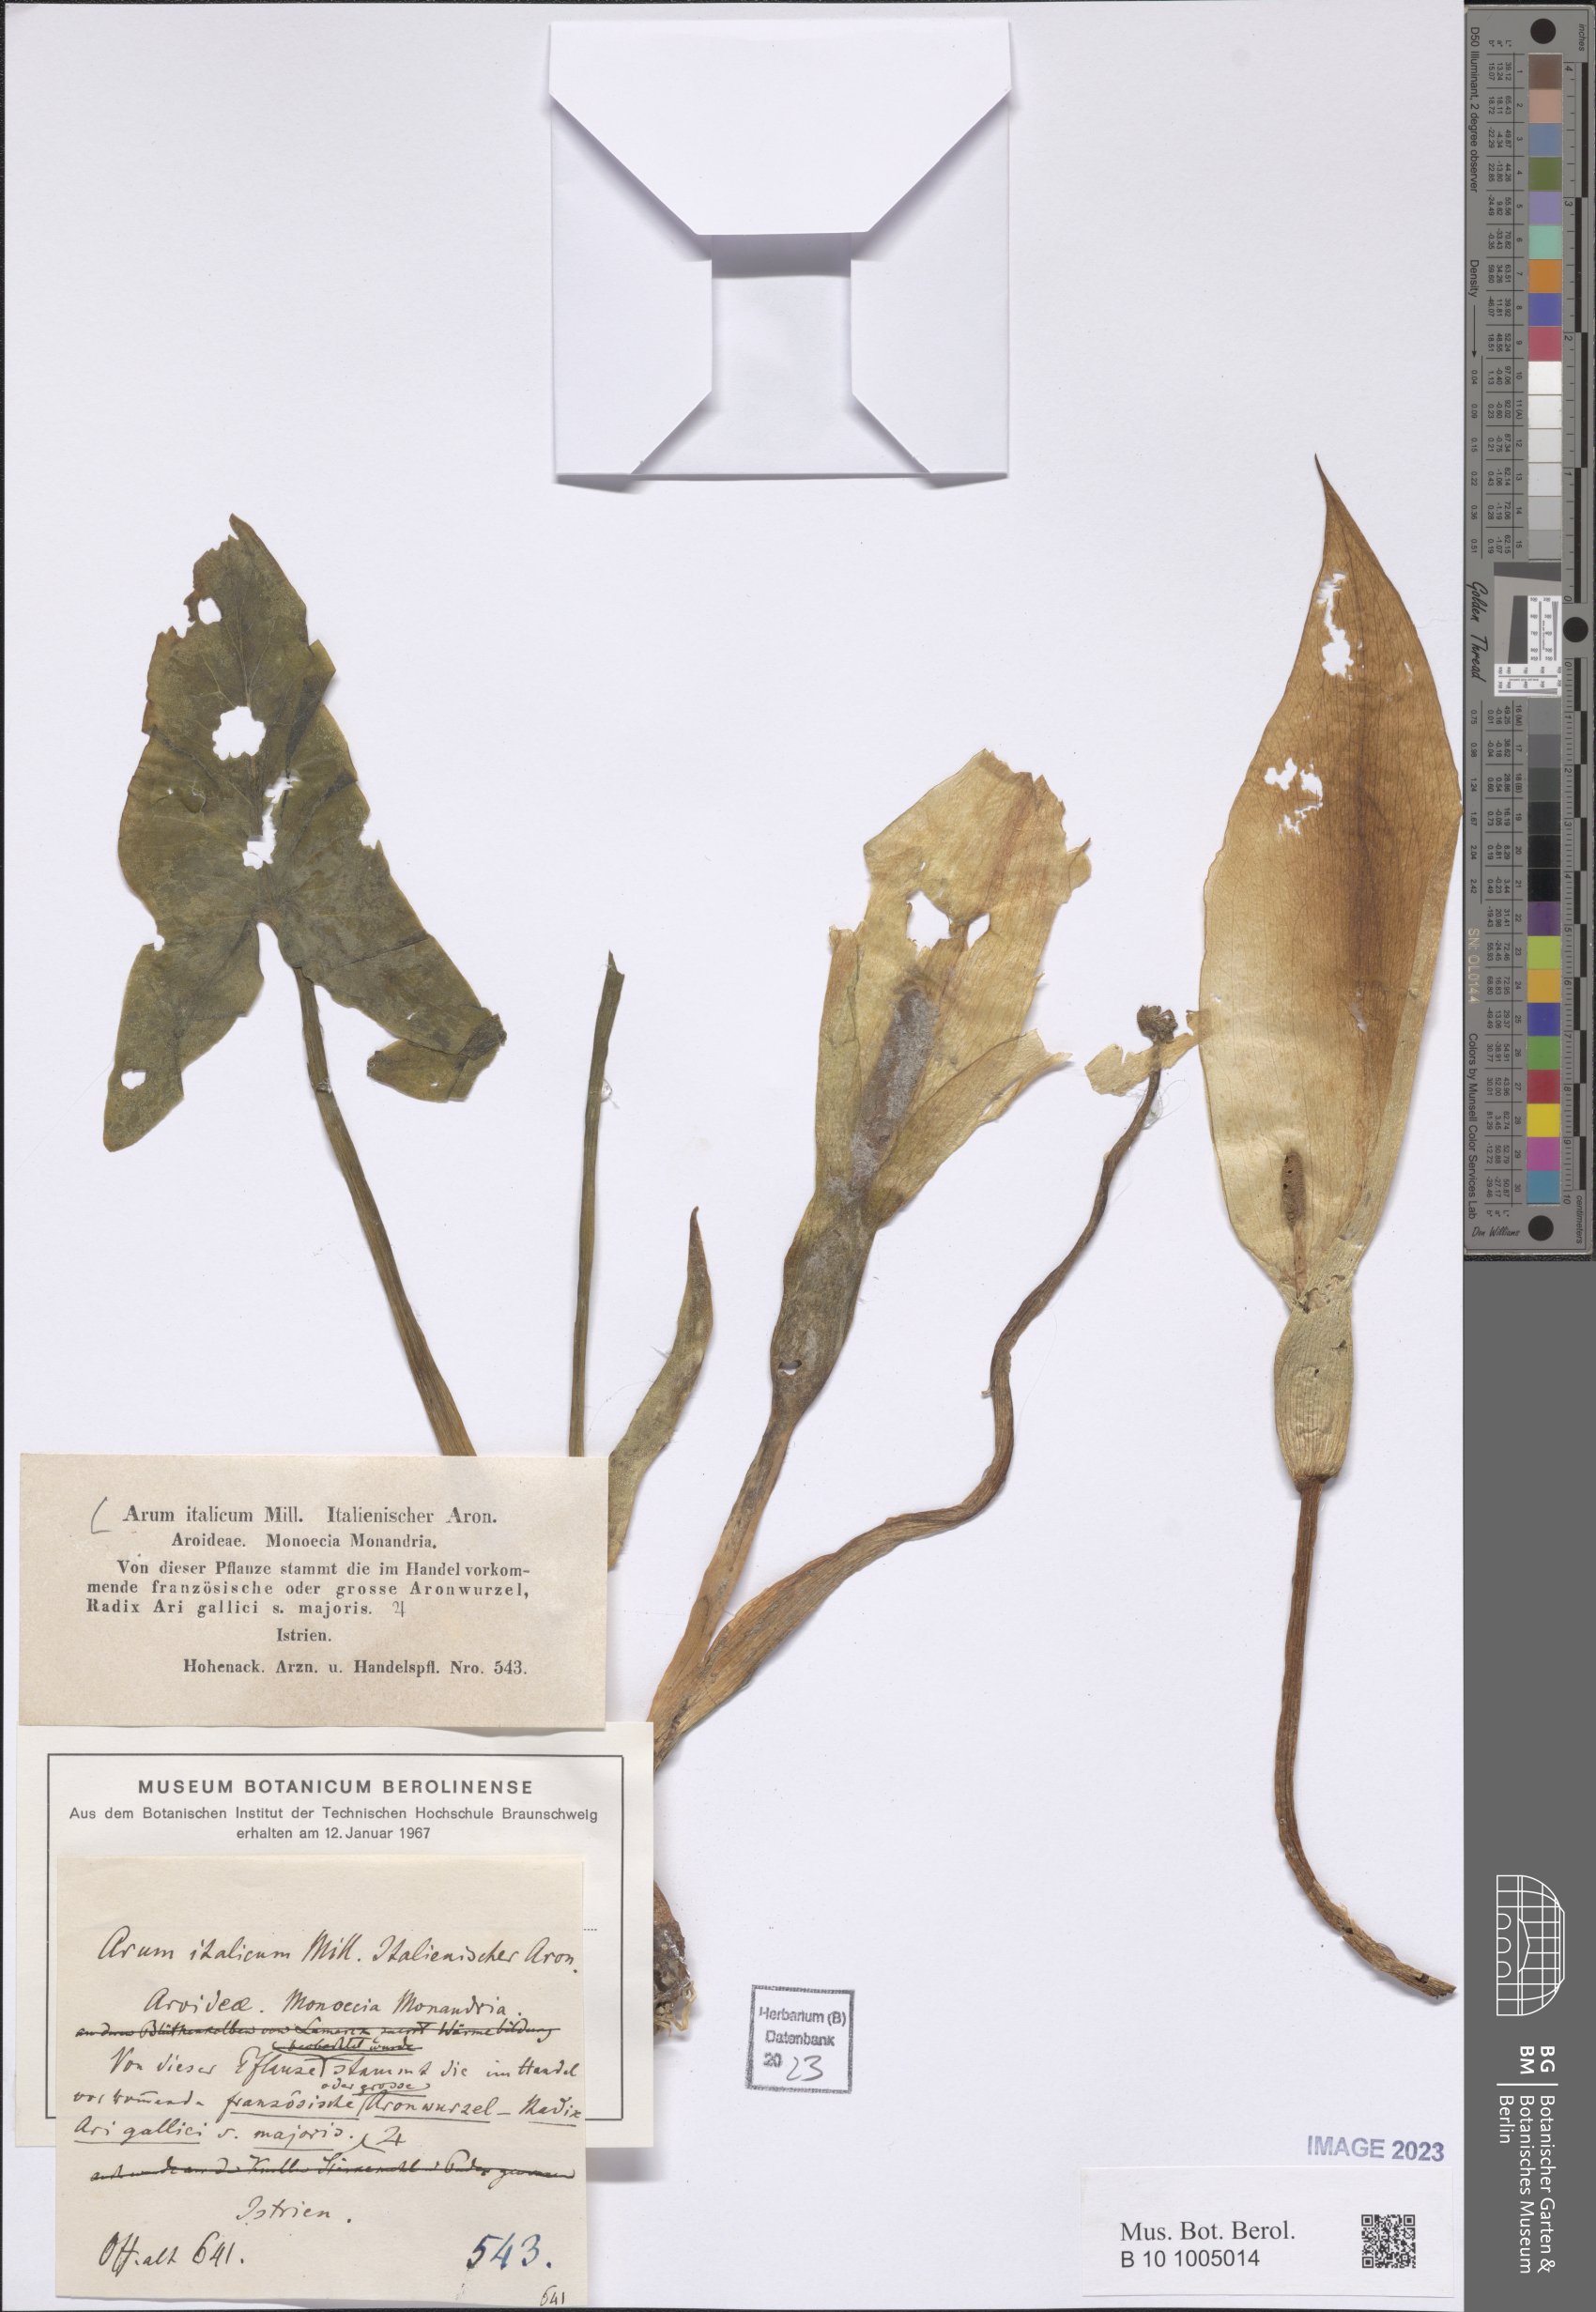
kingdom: Plantae
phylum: Tracheophyta
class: Liliopsida
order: Alismatales
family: Araceae
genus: Arum
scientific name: Arum italicum
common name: Italian lords-and-ladies
